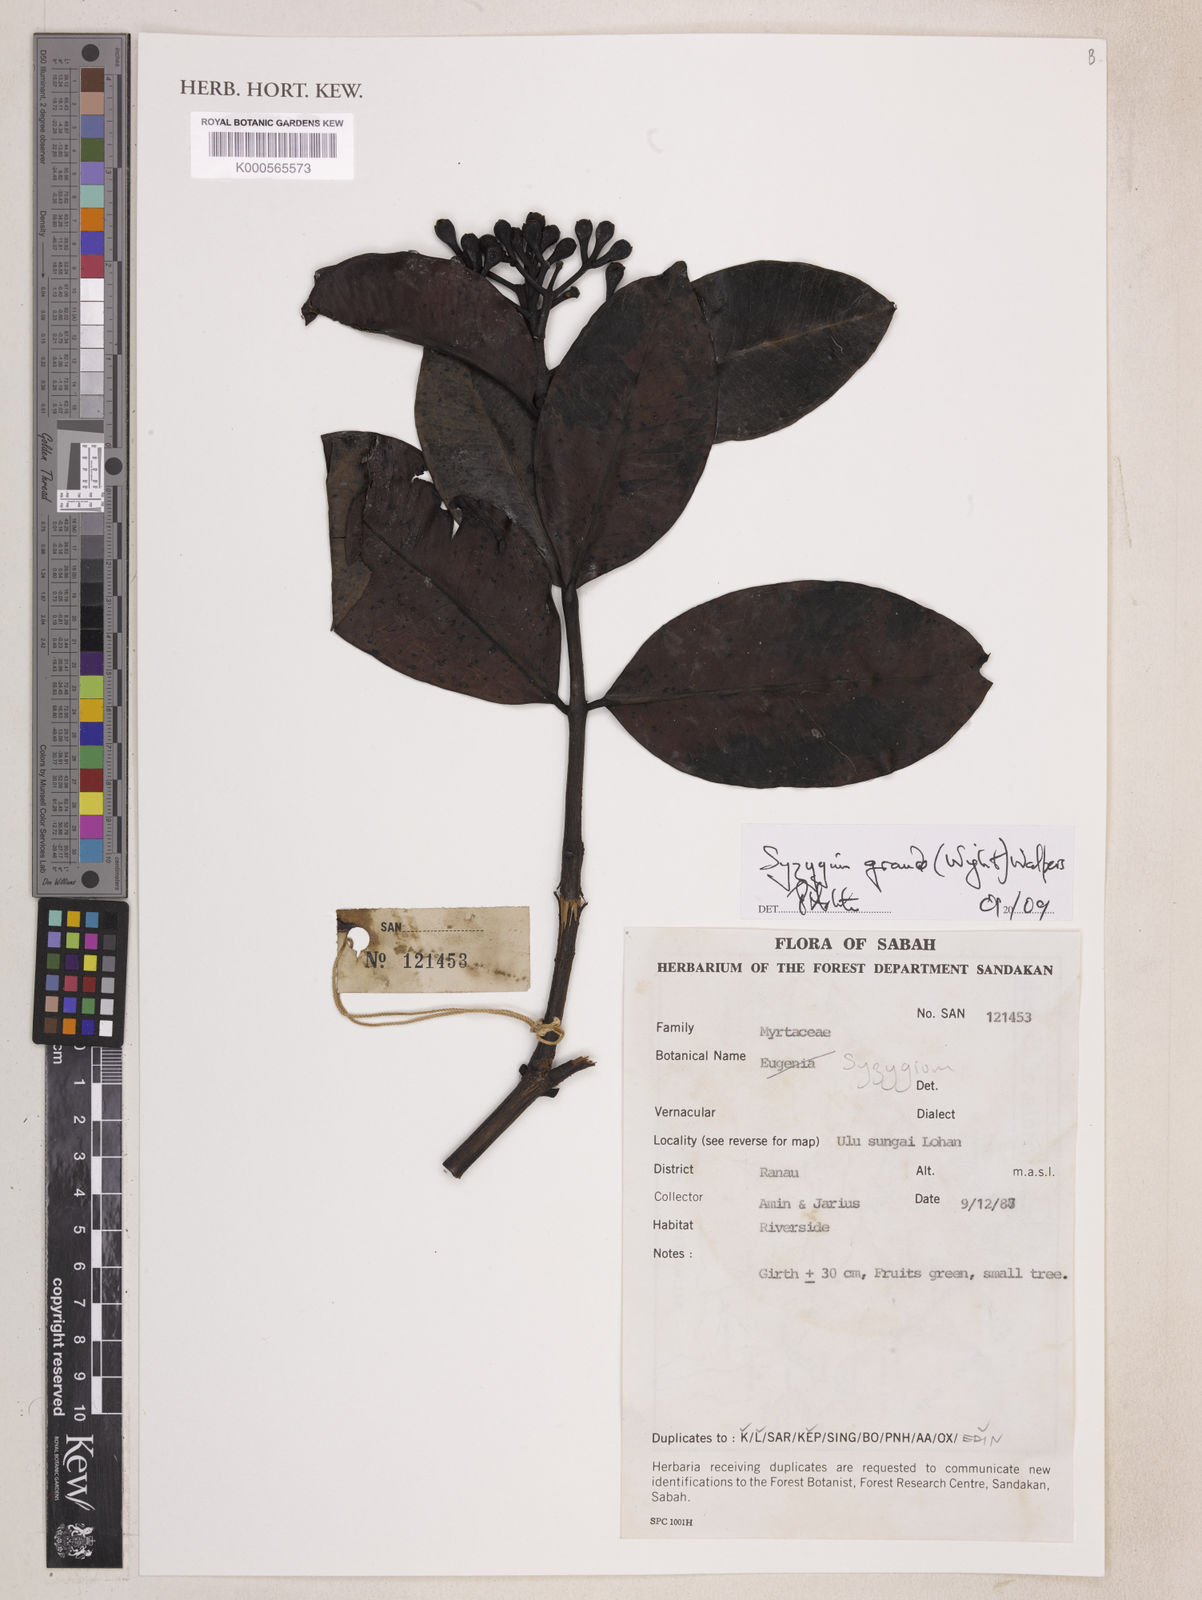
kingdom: Plantae
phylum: Tracheophyta
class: Magnoliopsida
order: Myrtales
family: Myrtaceae
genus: Syzygium
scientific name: Syzygium grande
